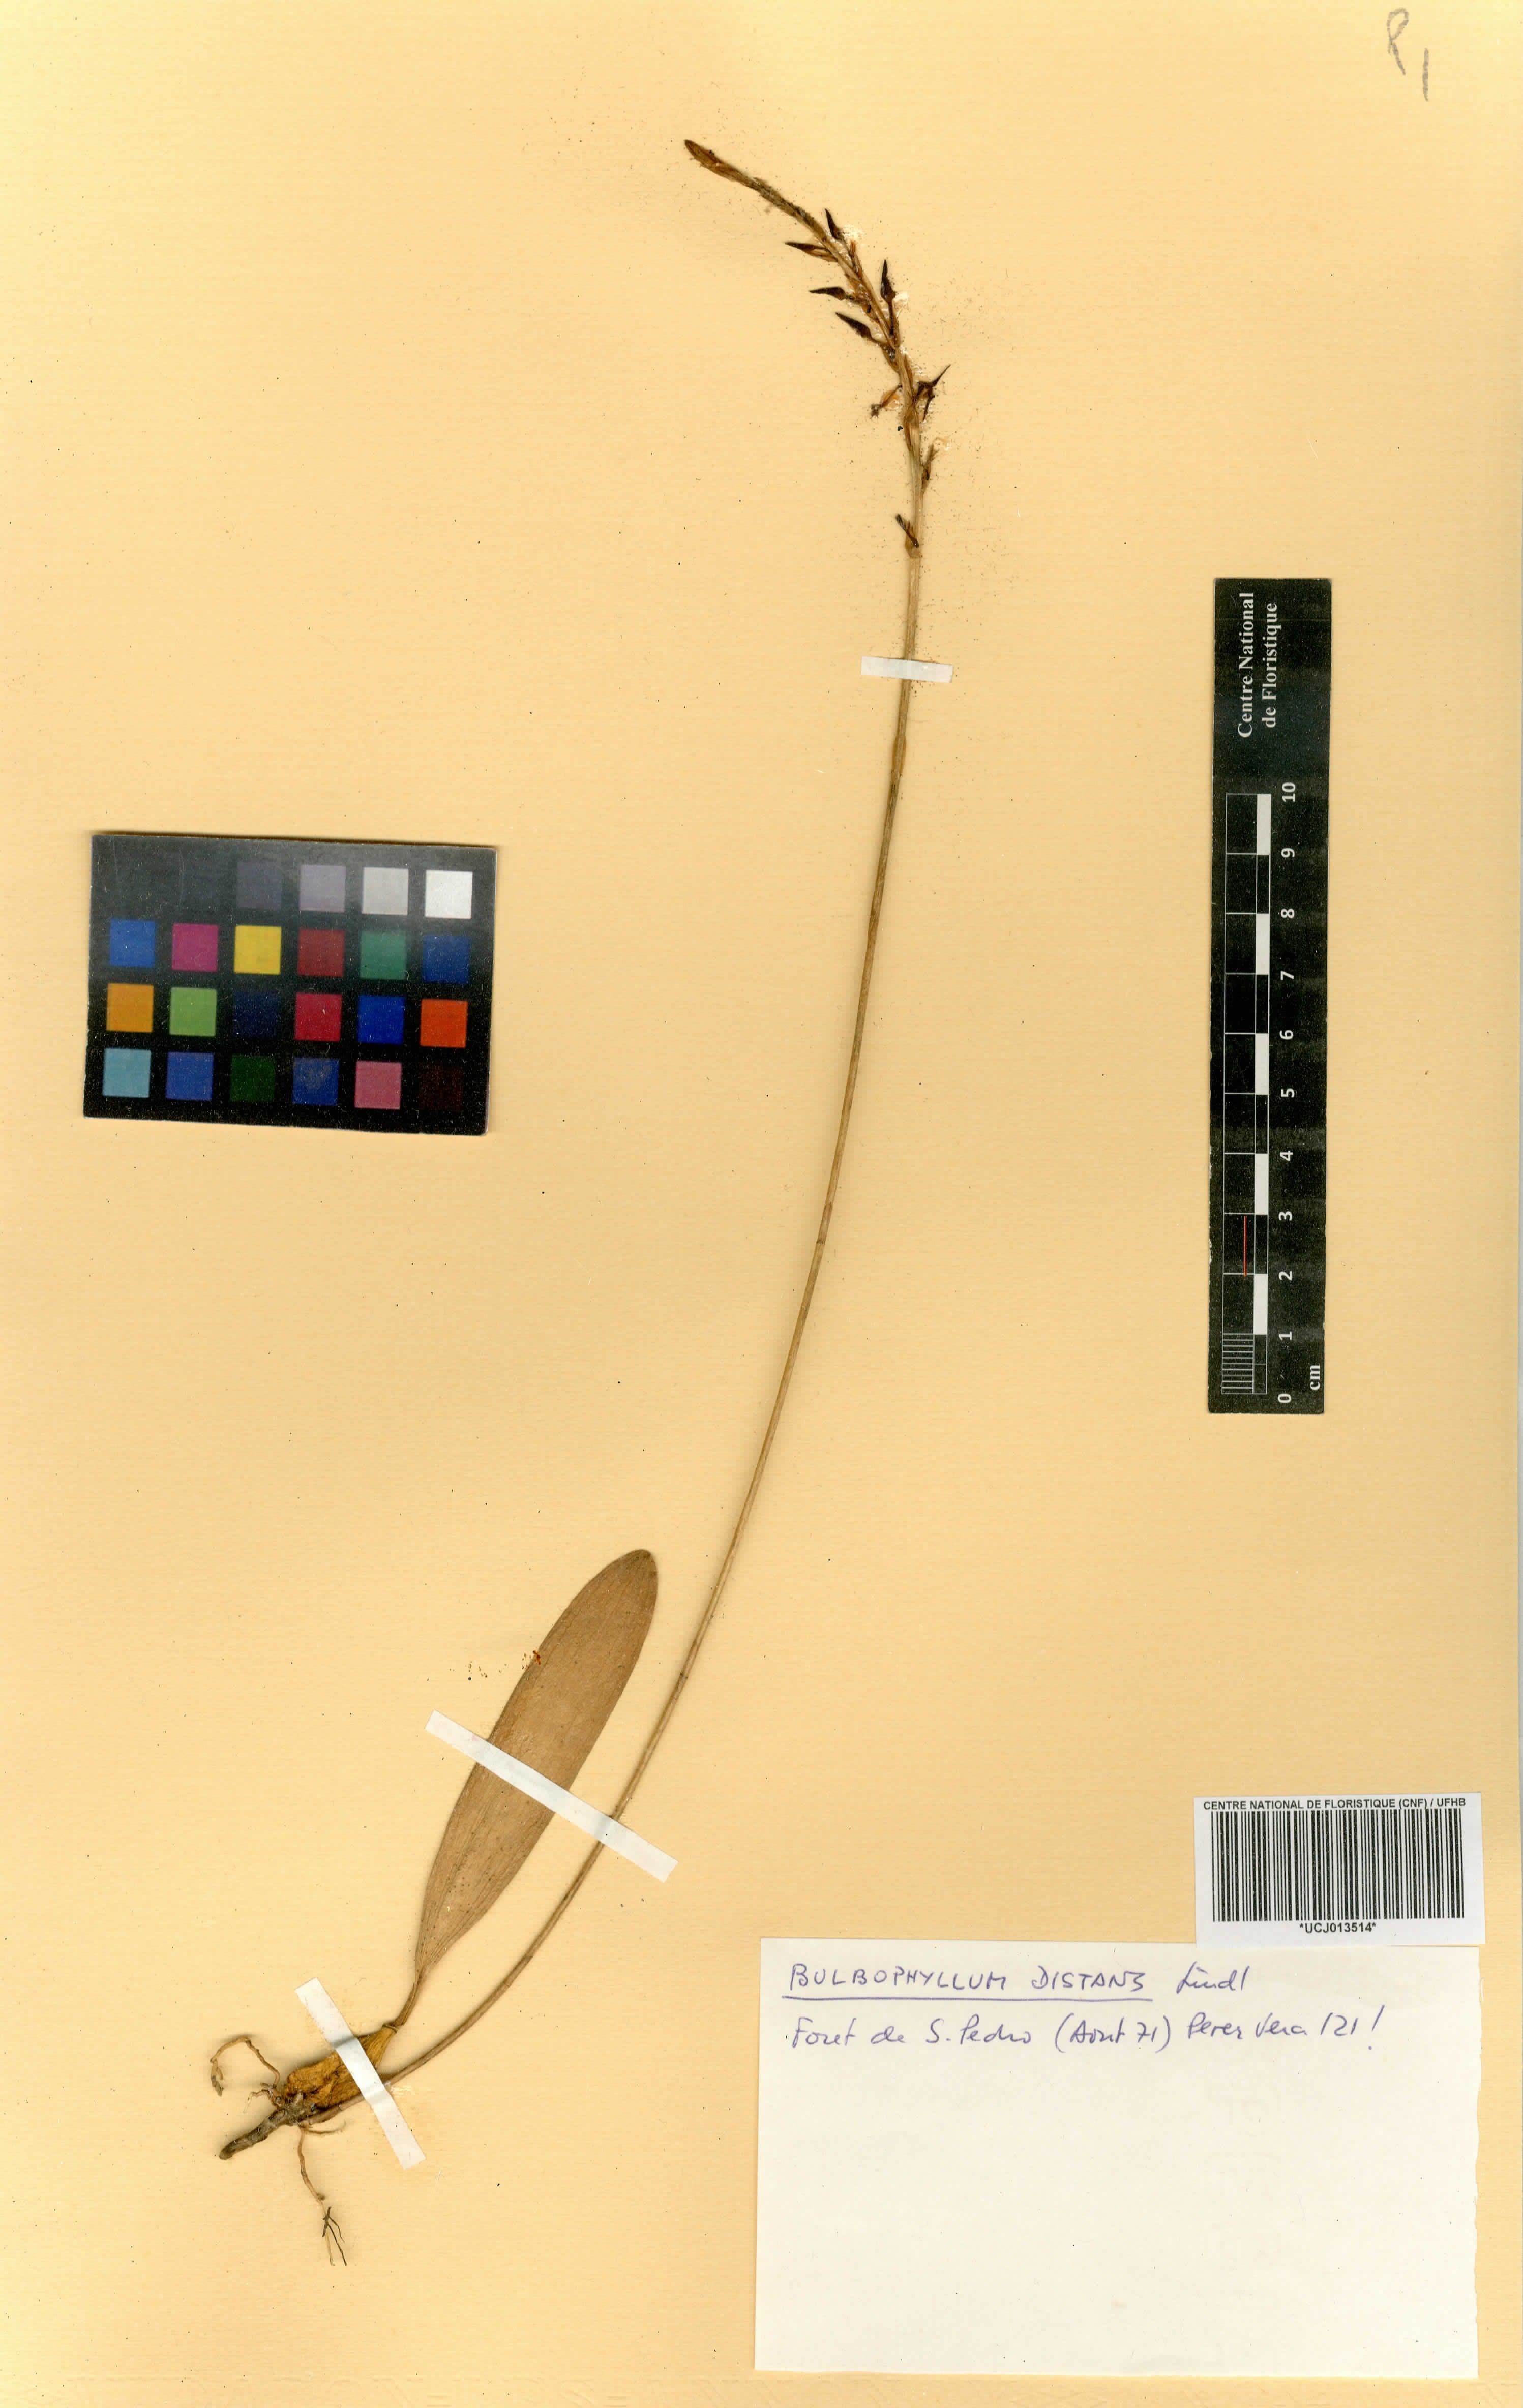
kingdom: Plantae
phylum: Tracheophyta
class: Liliopsida
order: Asparagales
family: Orchidaceae
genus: Bulbophyllum
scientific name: Bulbophyllum saltatorium
